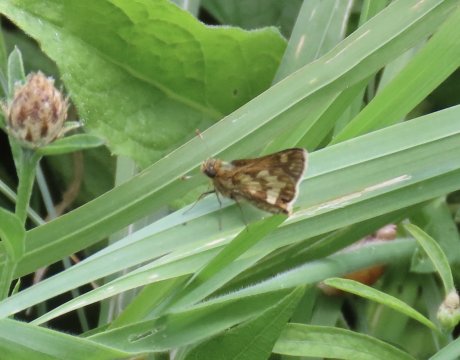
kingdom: Animalia
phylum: Arthropoda
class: Insecta
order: Lepidoptera
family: Hesperiidae
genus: Polites
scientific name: Polites coras
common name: Peck's Skipper
